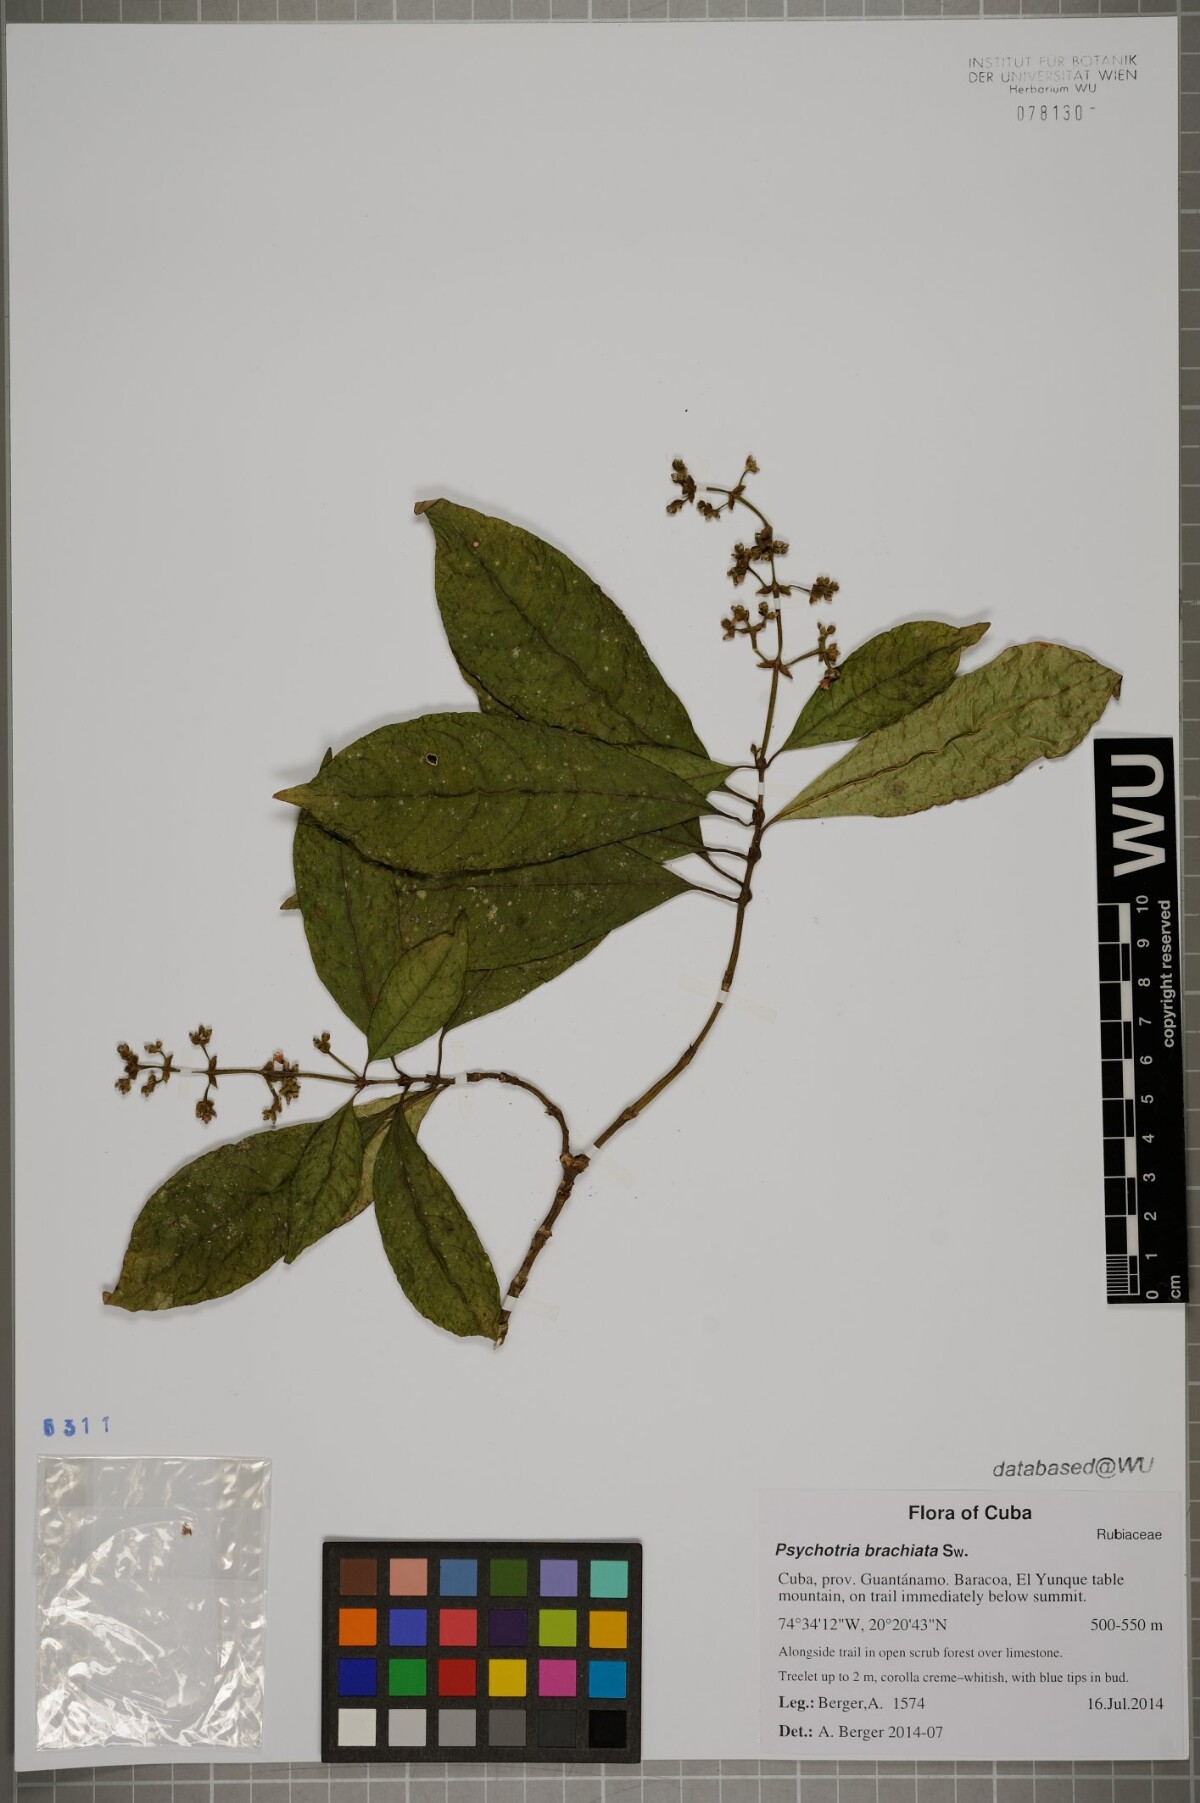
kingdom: Plantae
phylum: Tracheophyta
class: Magnoliopsida
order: Gentianales
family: Rubiaceae
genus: Palicourea
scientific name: Palicourea brachiata
